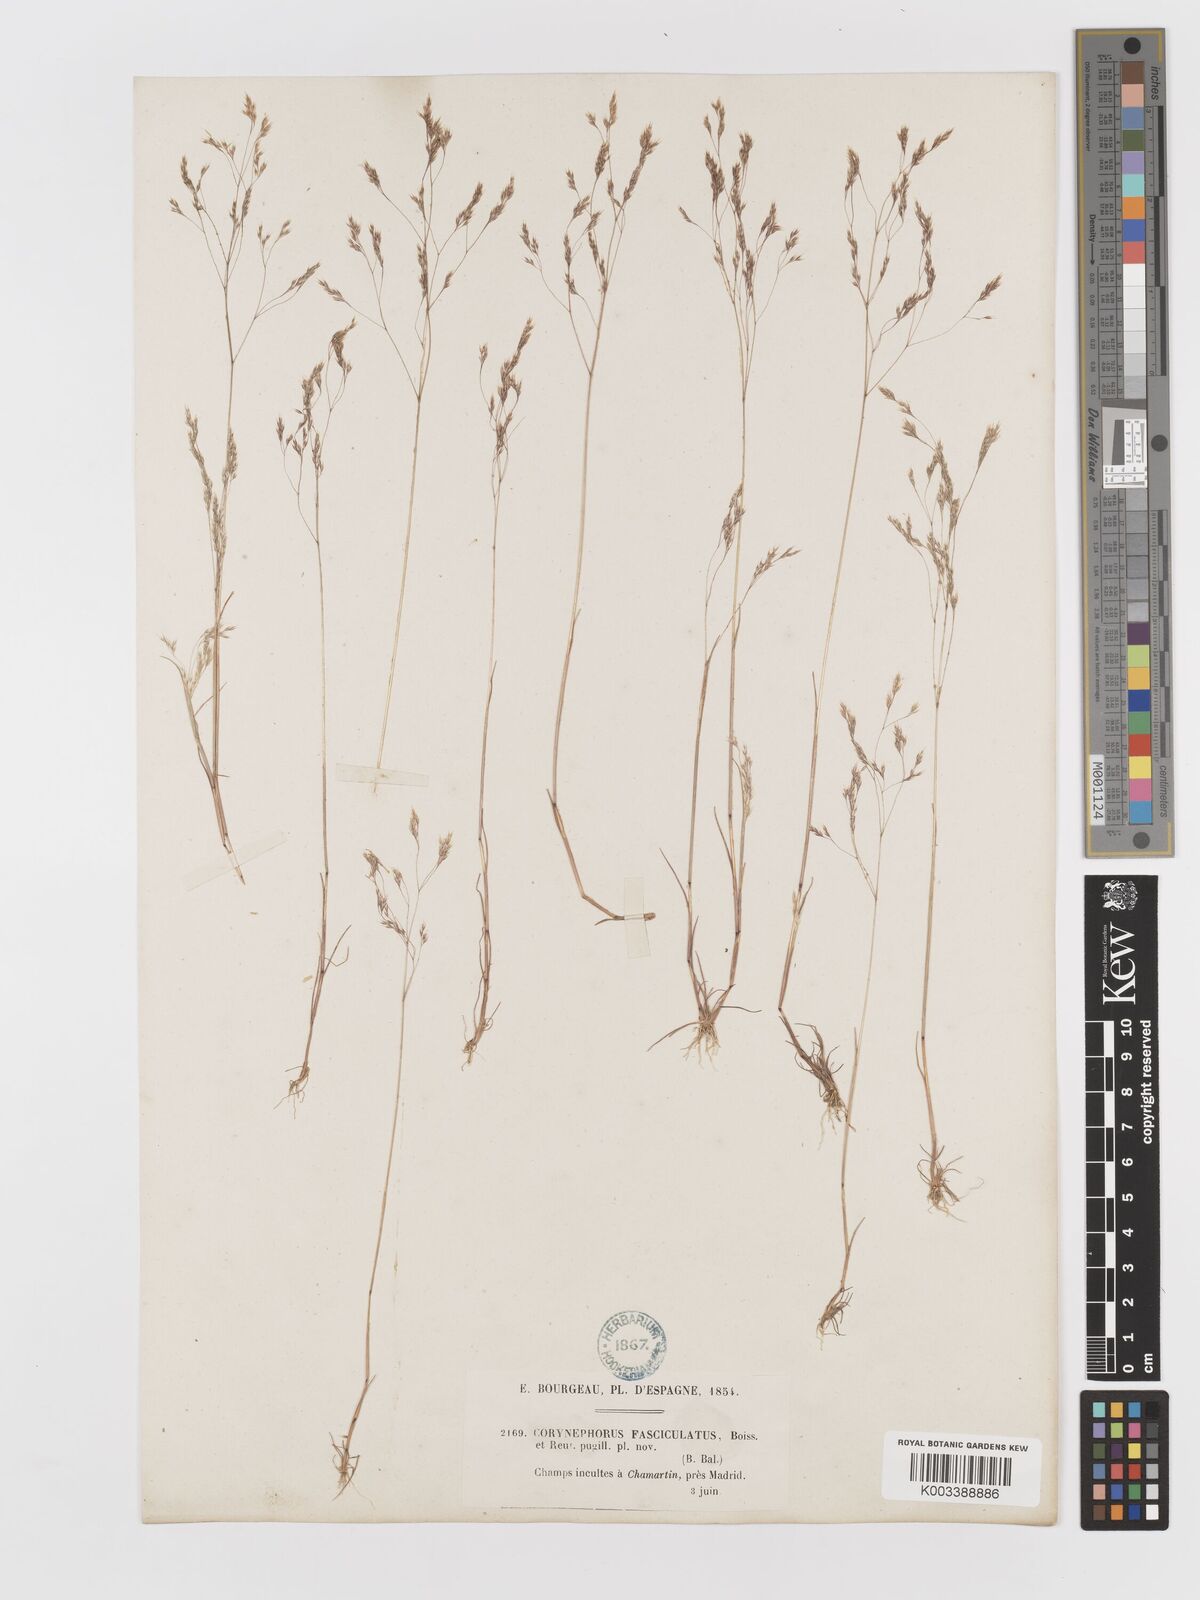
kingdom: Plantae
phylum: Tracheophyta
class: Liliopsida
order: Poales
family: Poaceae
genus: Corynephorus
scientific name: Corynephorus fasciculatus
